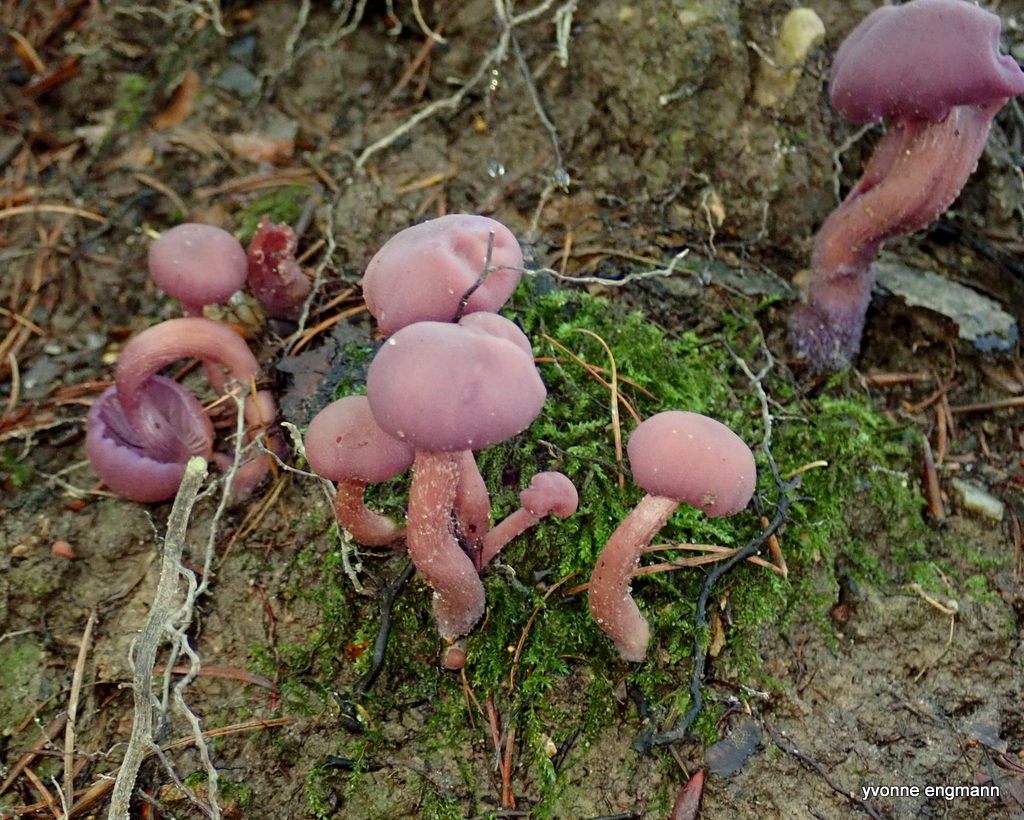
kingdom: Fungi
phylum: Basidiomycota
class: Agaricomycetes
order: Agaricales
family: Hydnangiaceae
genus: Laccaria
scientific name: Laccaria amethystina
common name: violet ametysthat
